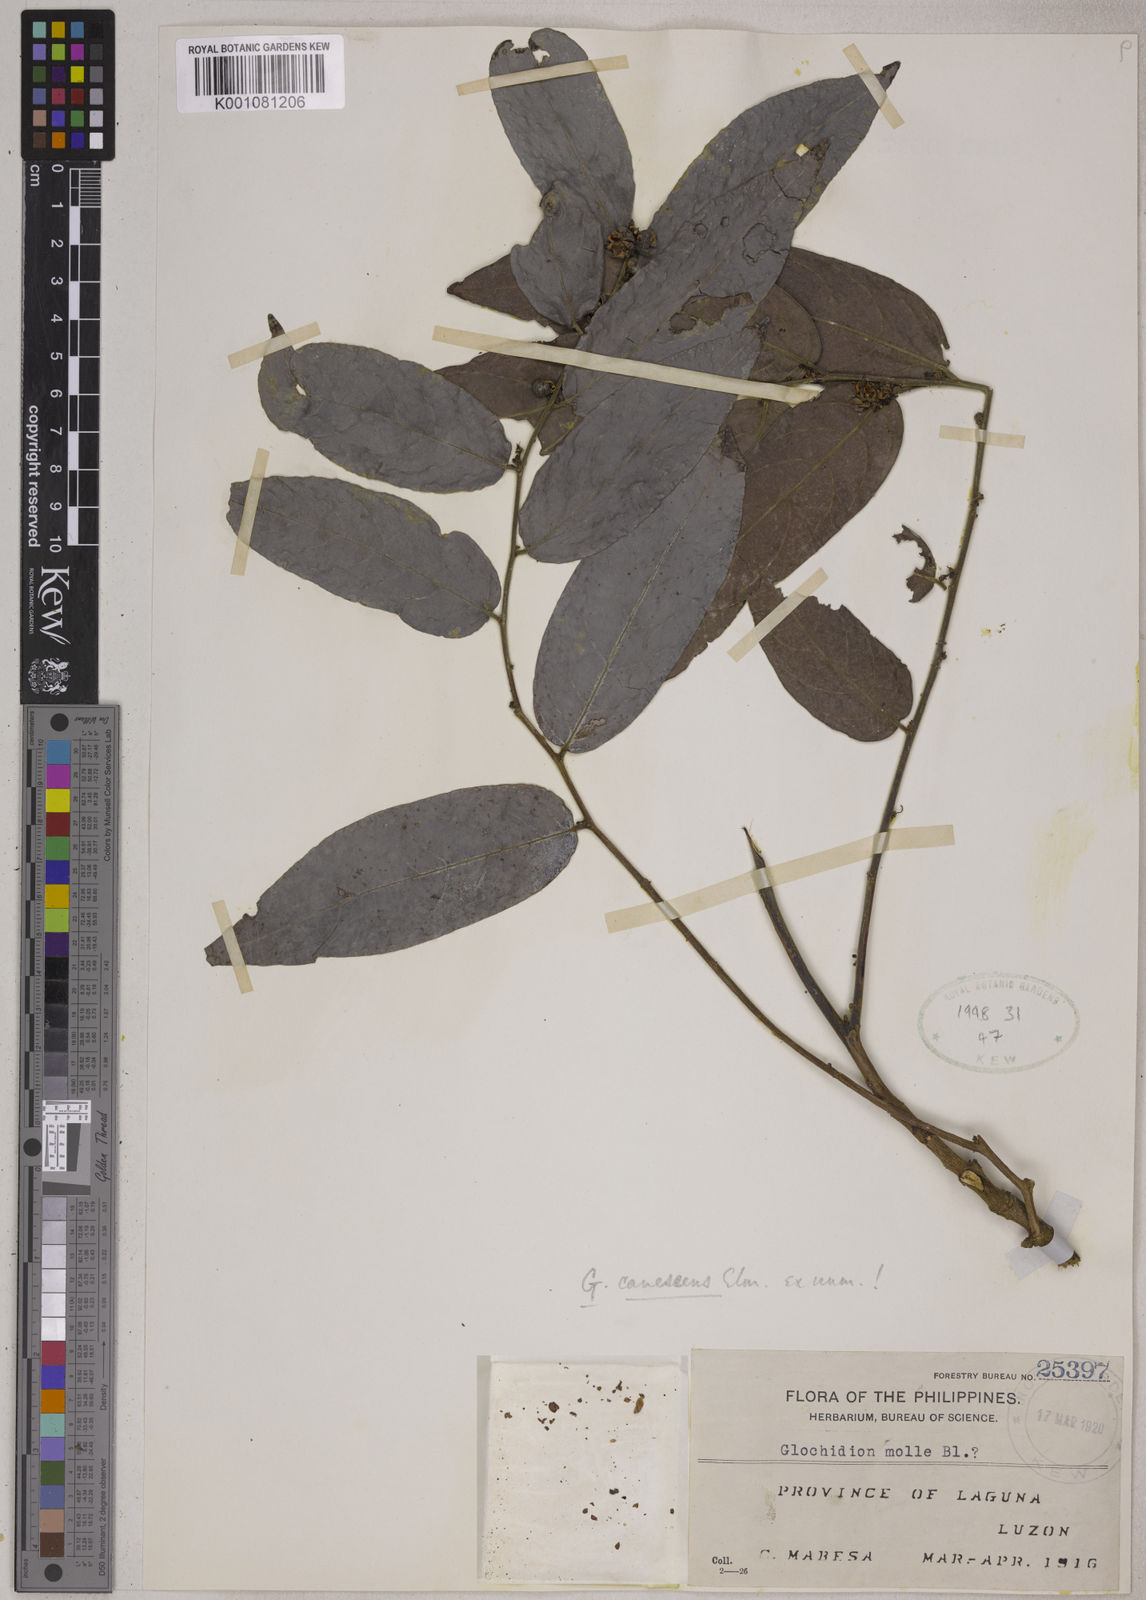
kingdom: Plantae
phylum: Tracheophyta
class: Magnoliopsida
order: Malpighiales
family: Phyllanthaceae
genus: Glochidion
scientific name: Glochidion canescens
